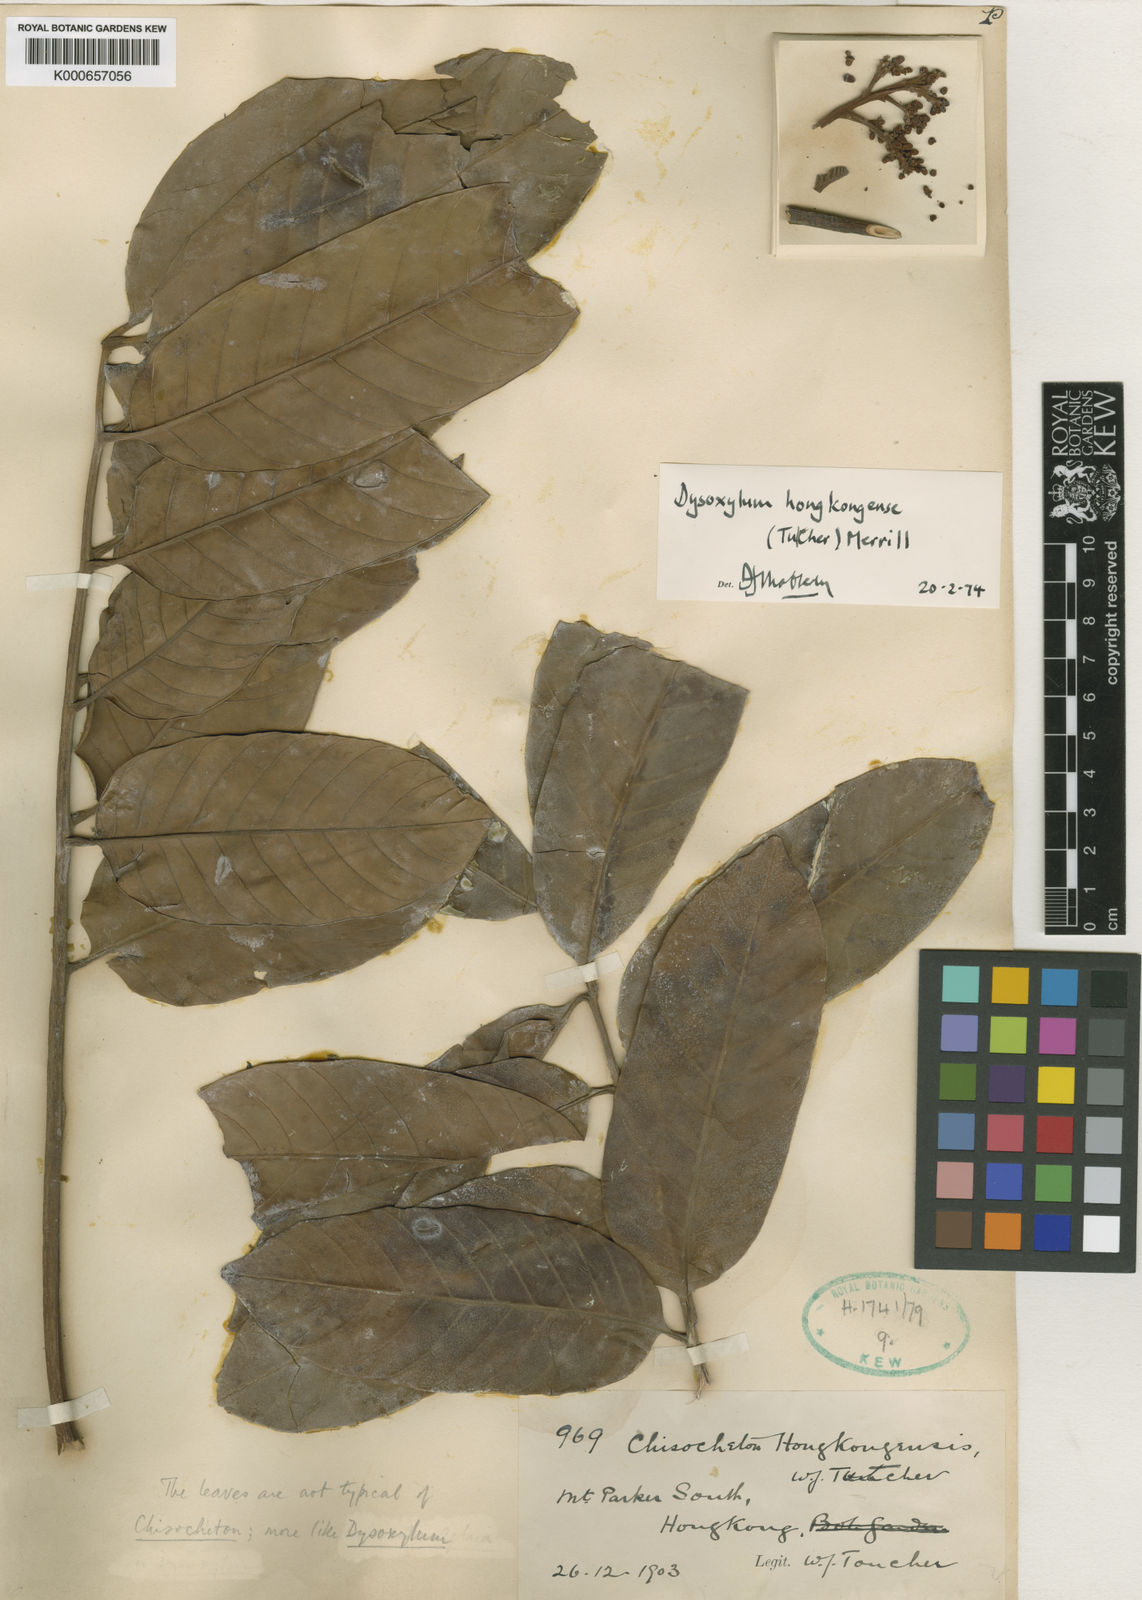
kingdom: Plantae
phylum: Tracheophyta
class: Magnoliopsida
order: Sapindales
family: Meliaceae
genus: Prasoxylon
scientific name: Prasoxylon hongkongense
